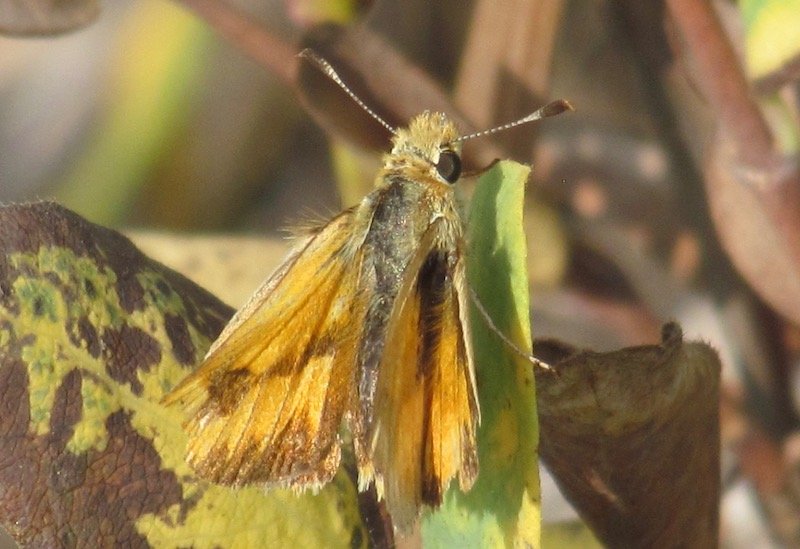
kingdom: Animalia
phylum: Arthropoda
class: Insecta
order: Lepidoptera
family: Hesperiidae
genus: Polites
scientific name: Polites
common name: Long Dash Skipper
